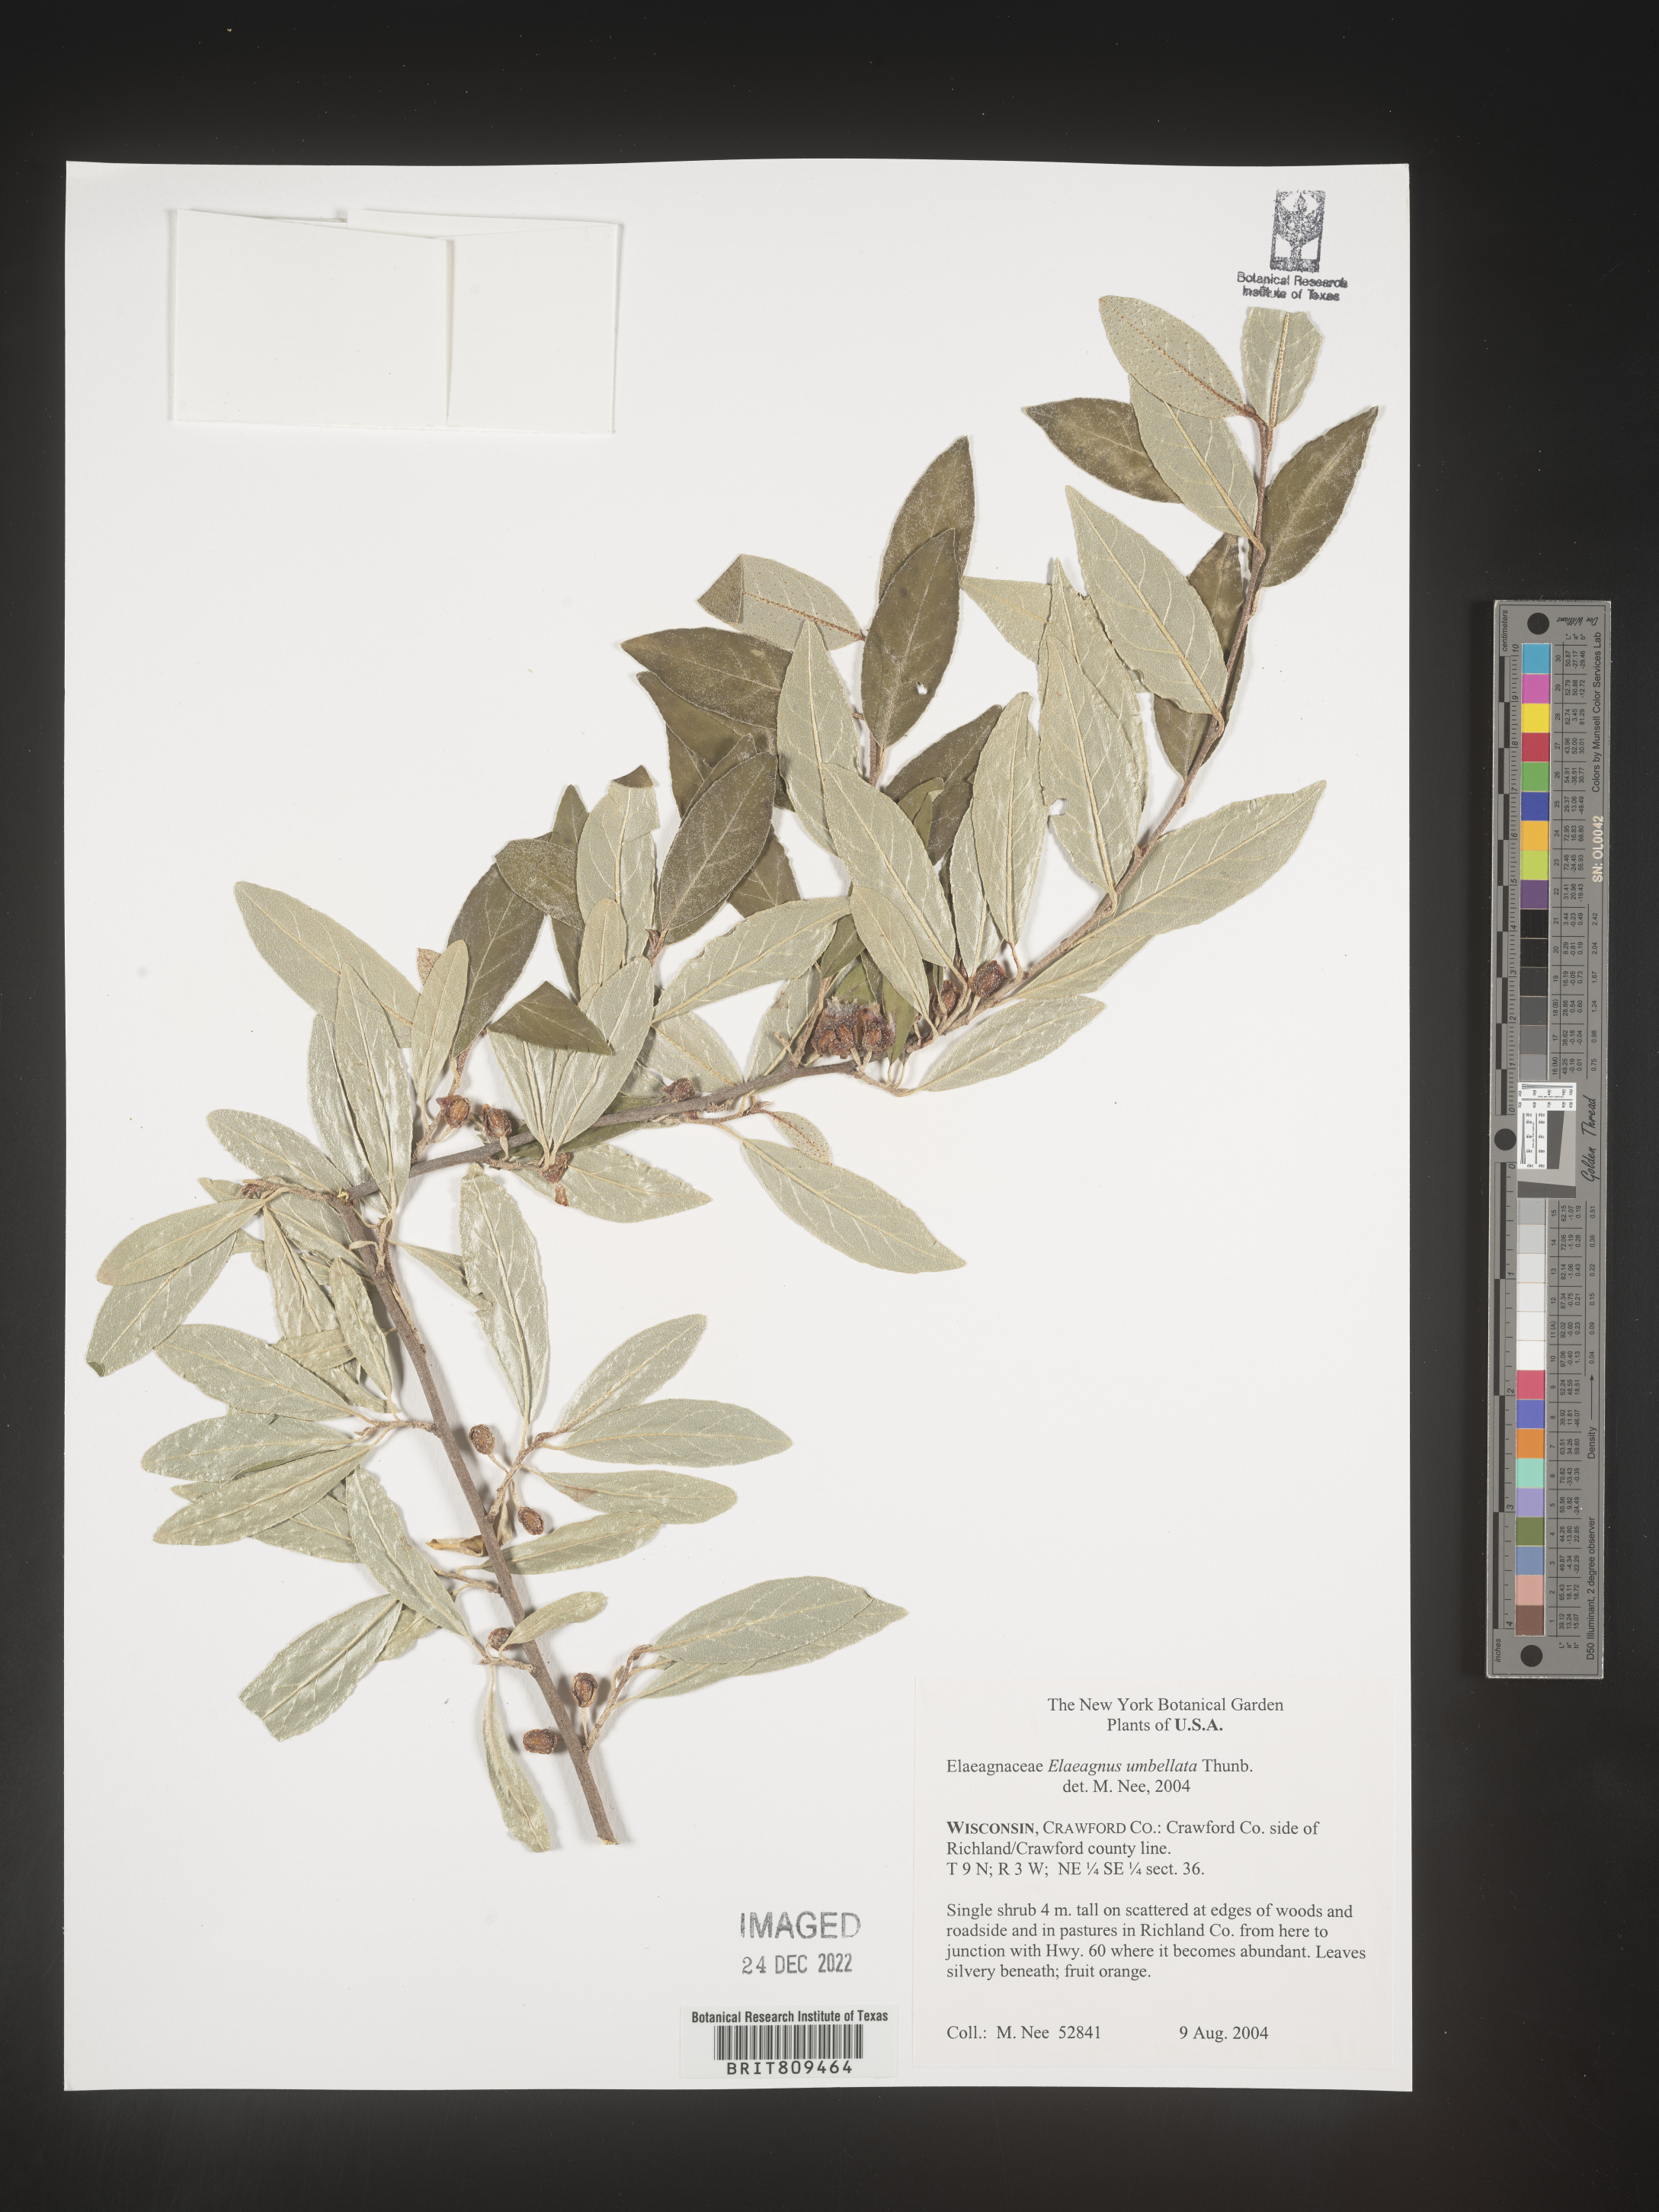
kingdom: Plantae
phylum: Tracheophyta
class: Magnoliopsida
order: Rosales
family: Elaeagnaceae
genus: Elaeagnus
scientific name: Elaeagnus
